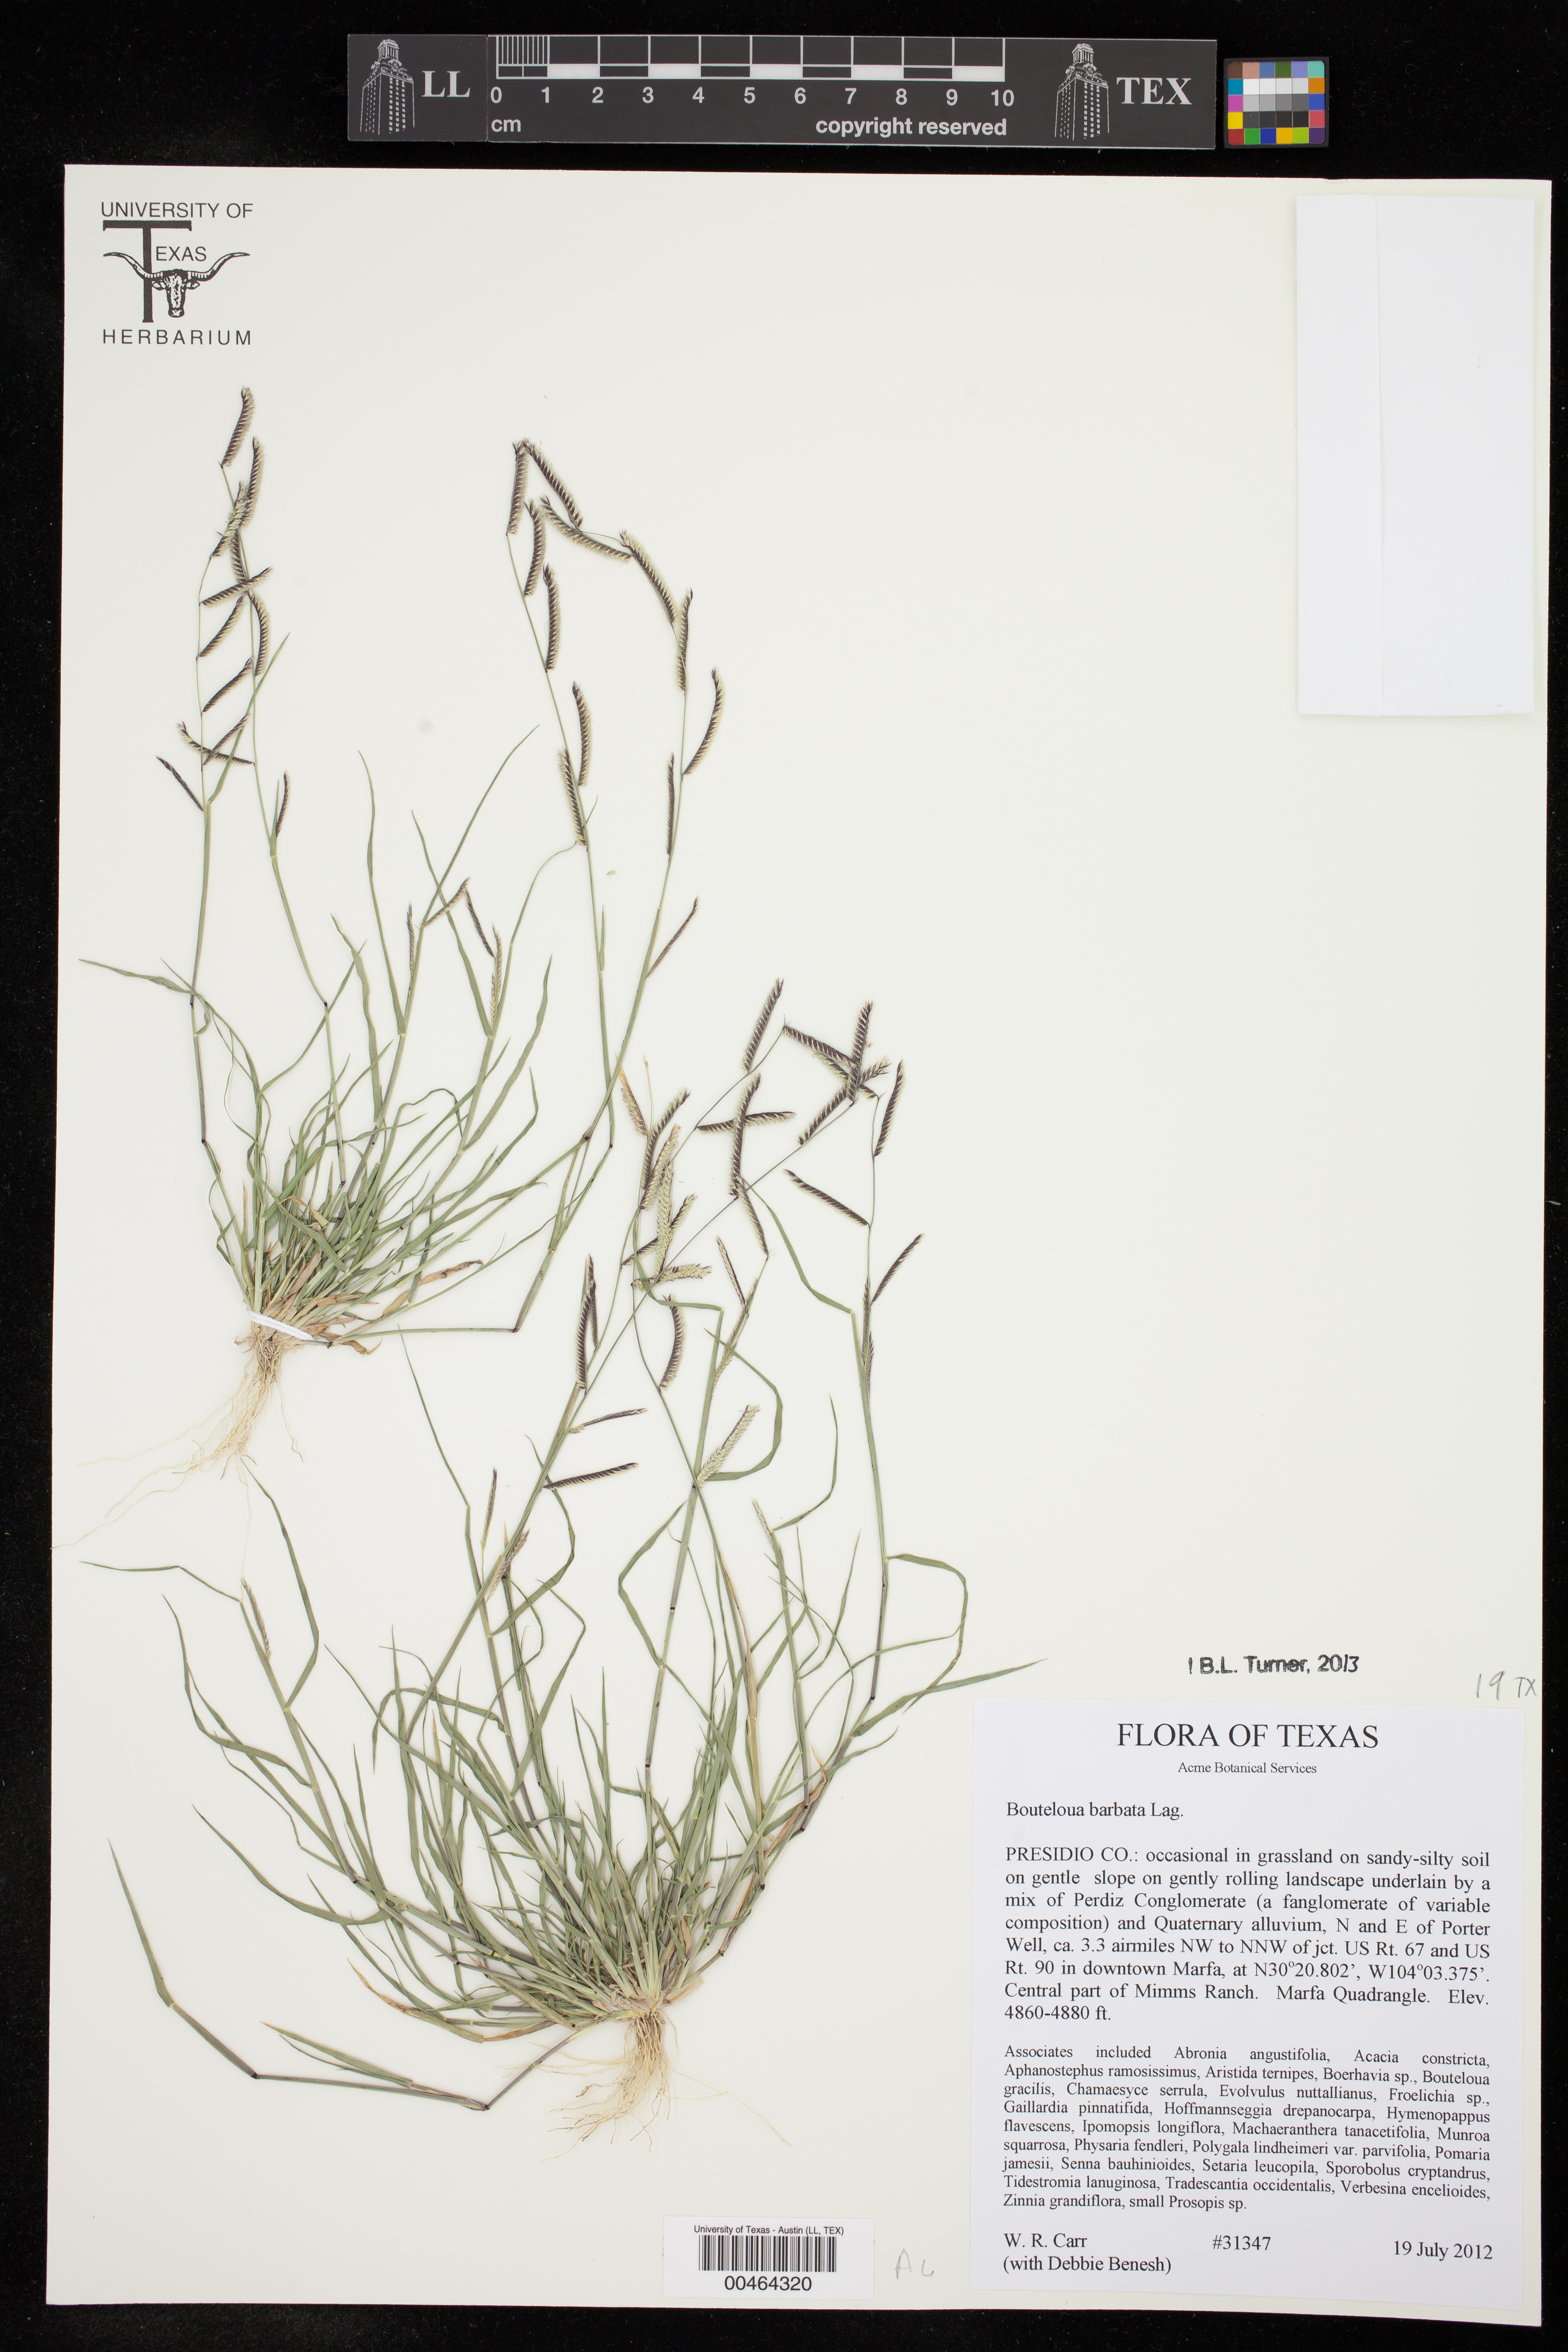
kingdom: Plantae
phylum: Tracheophyta
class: Liliopsida
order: Poales
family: Poaceae
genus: Bouteloua
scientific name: Bouteloua barbata
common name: Six-weeks grama
